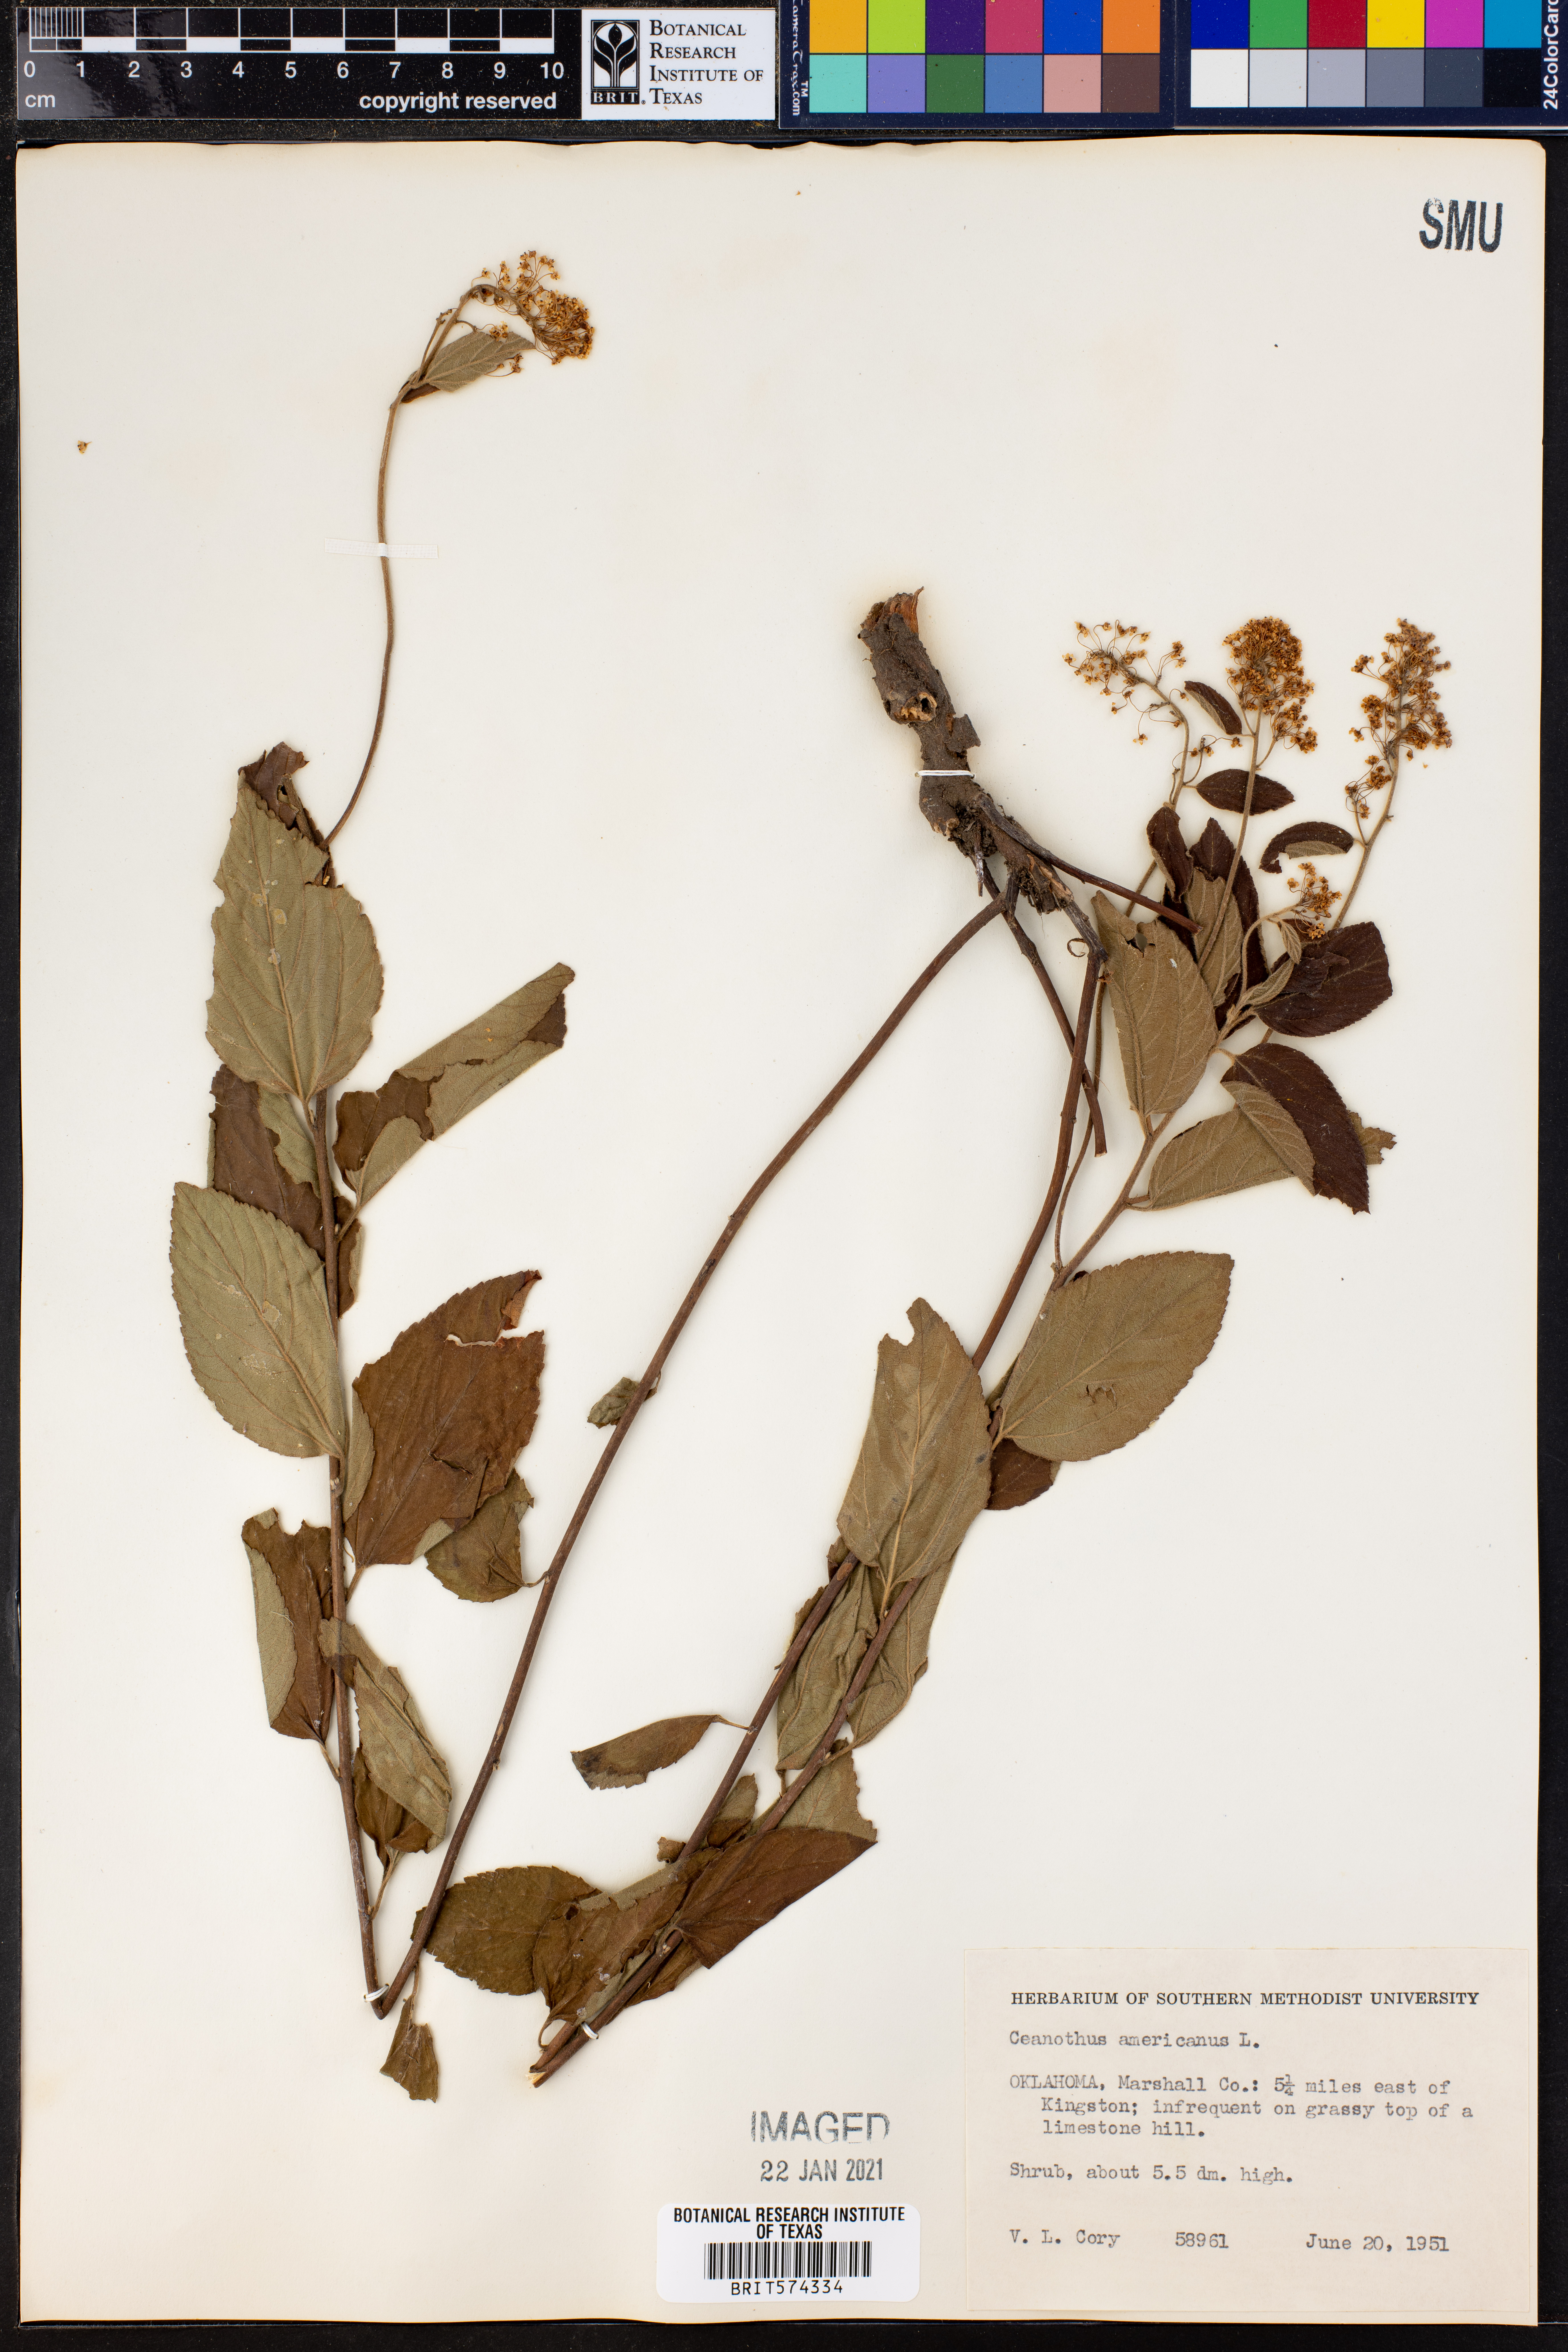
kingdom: Plantae
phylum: Tracheophyta
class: Magnoliopsida
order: Rosales
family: Rhamnaceae
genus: Ceanothus
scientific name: Ceanothus americanus
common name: Redroot
